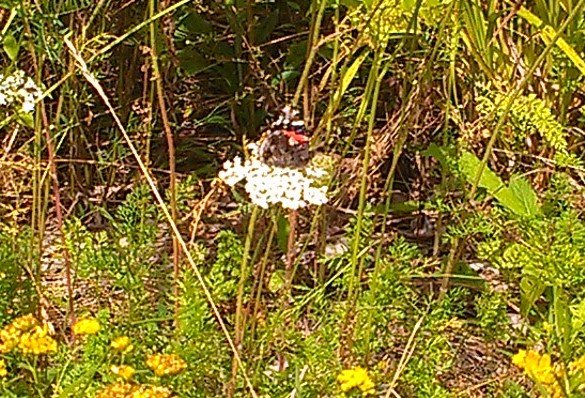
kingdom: Animalia
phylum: Arthropoda
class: Insecta
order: Lepidoptera
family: Nymphalidae
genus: Vanessa
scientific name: Vanessa atalanta
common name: Red Admiral
